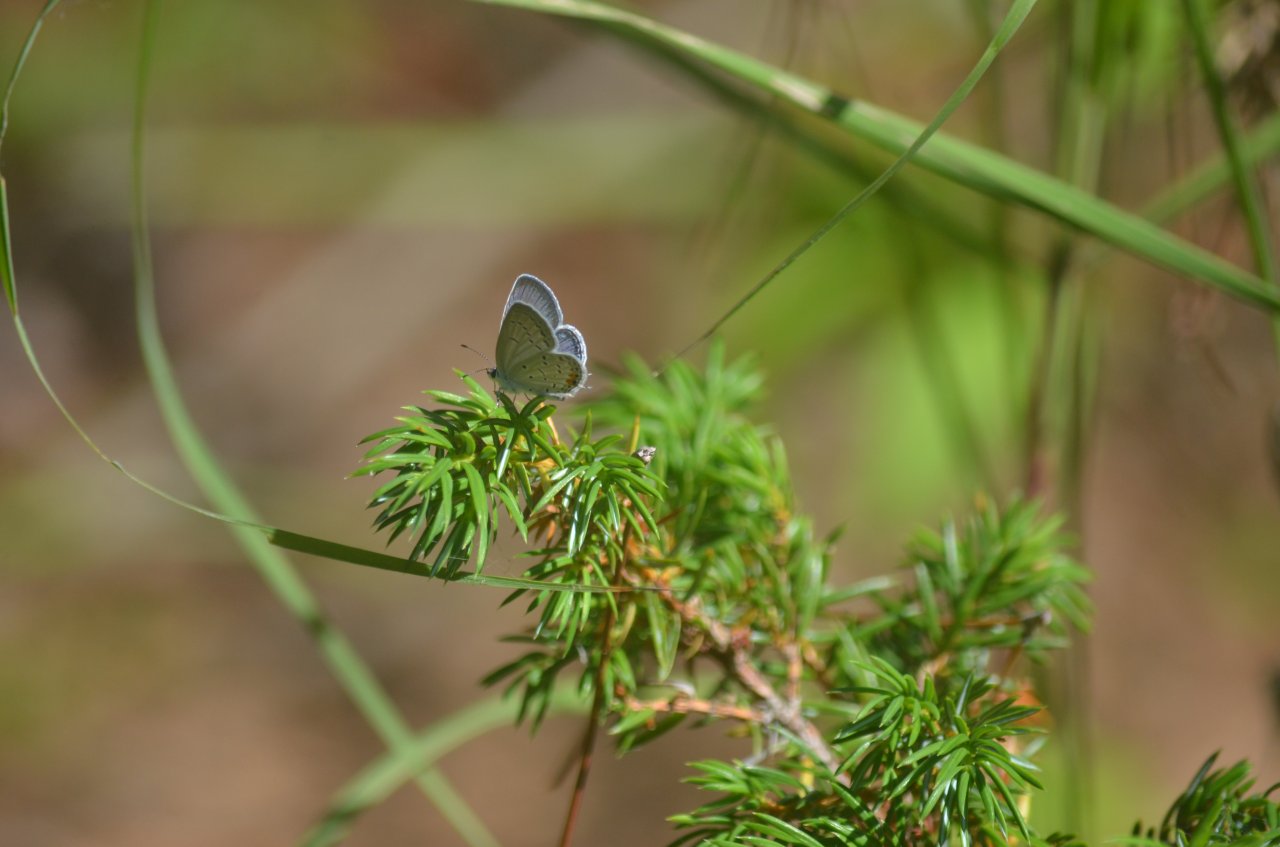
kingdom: Animalia
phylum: Arthropoda
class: Insecta
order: Lepidoptera
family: Lycaenidae
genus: Elkalyce
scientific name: Elkalyce comyntas
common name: Eastern Tailed-Blue
